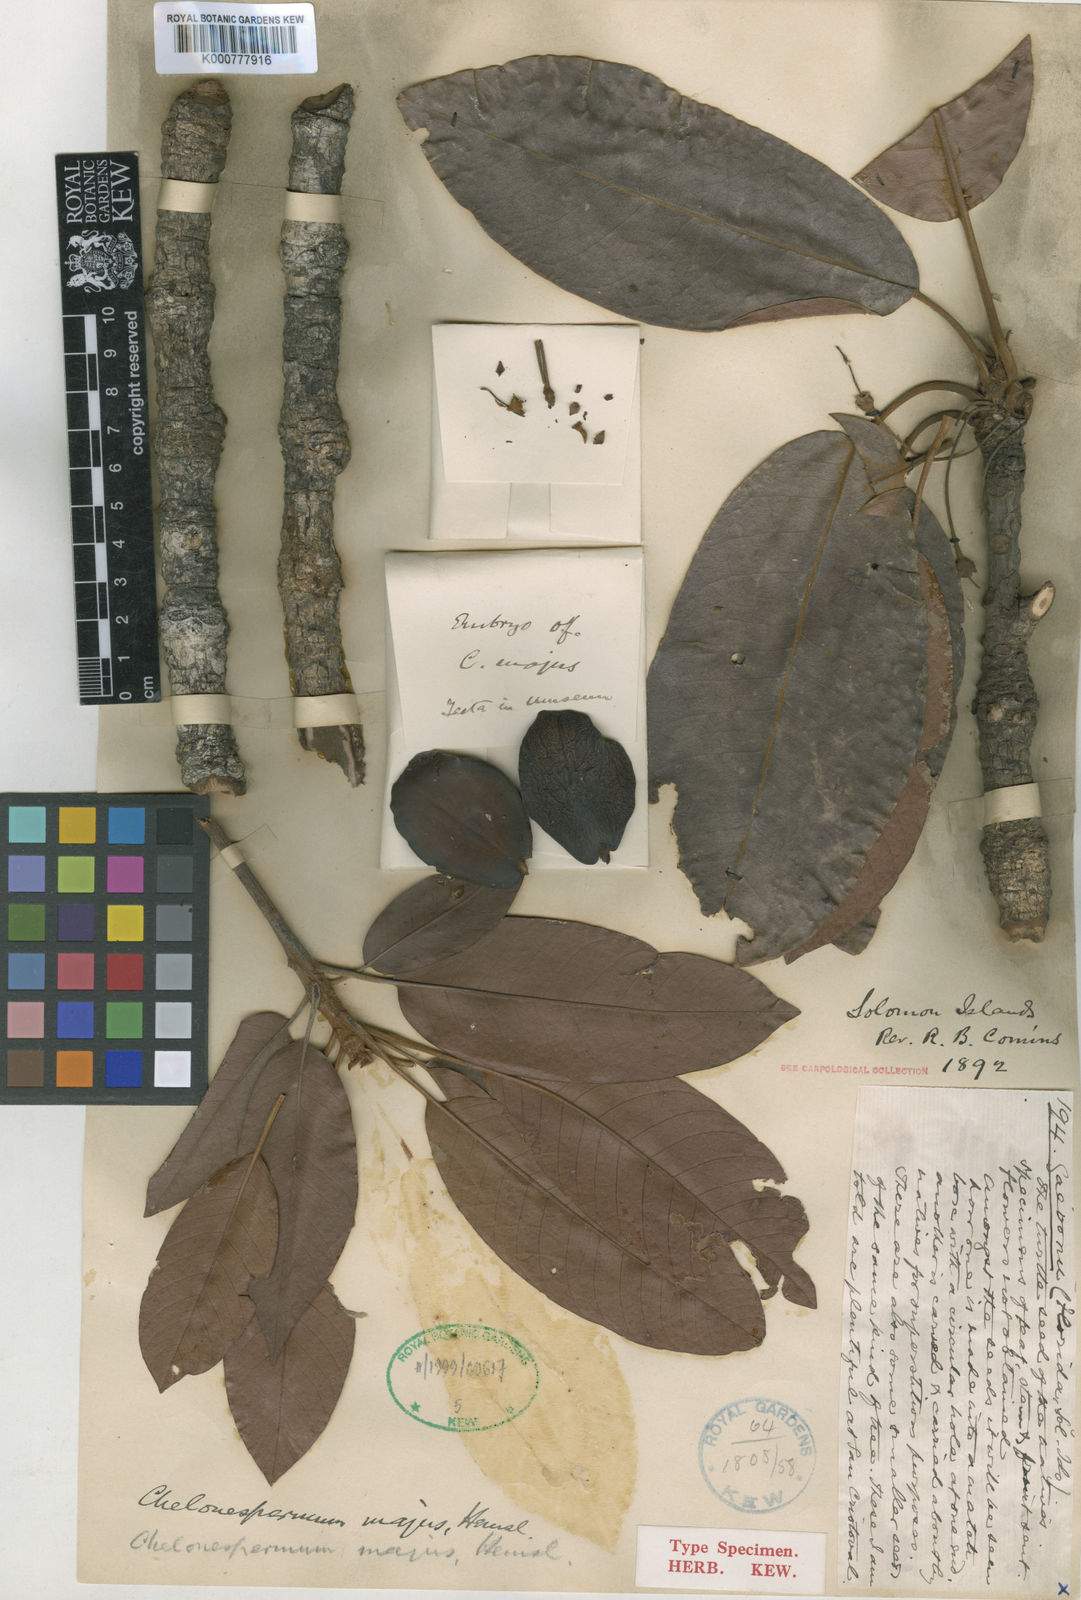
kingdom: Plantae
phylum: Tracheophyta
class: Magnoliopsida
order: Ericales
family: Sapotaceae
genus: Burckella
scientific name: Burckella
